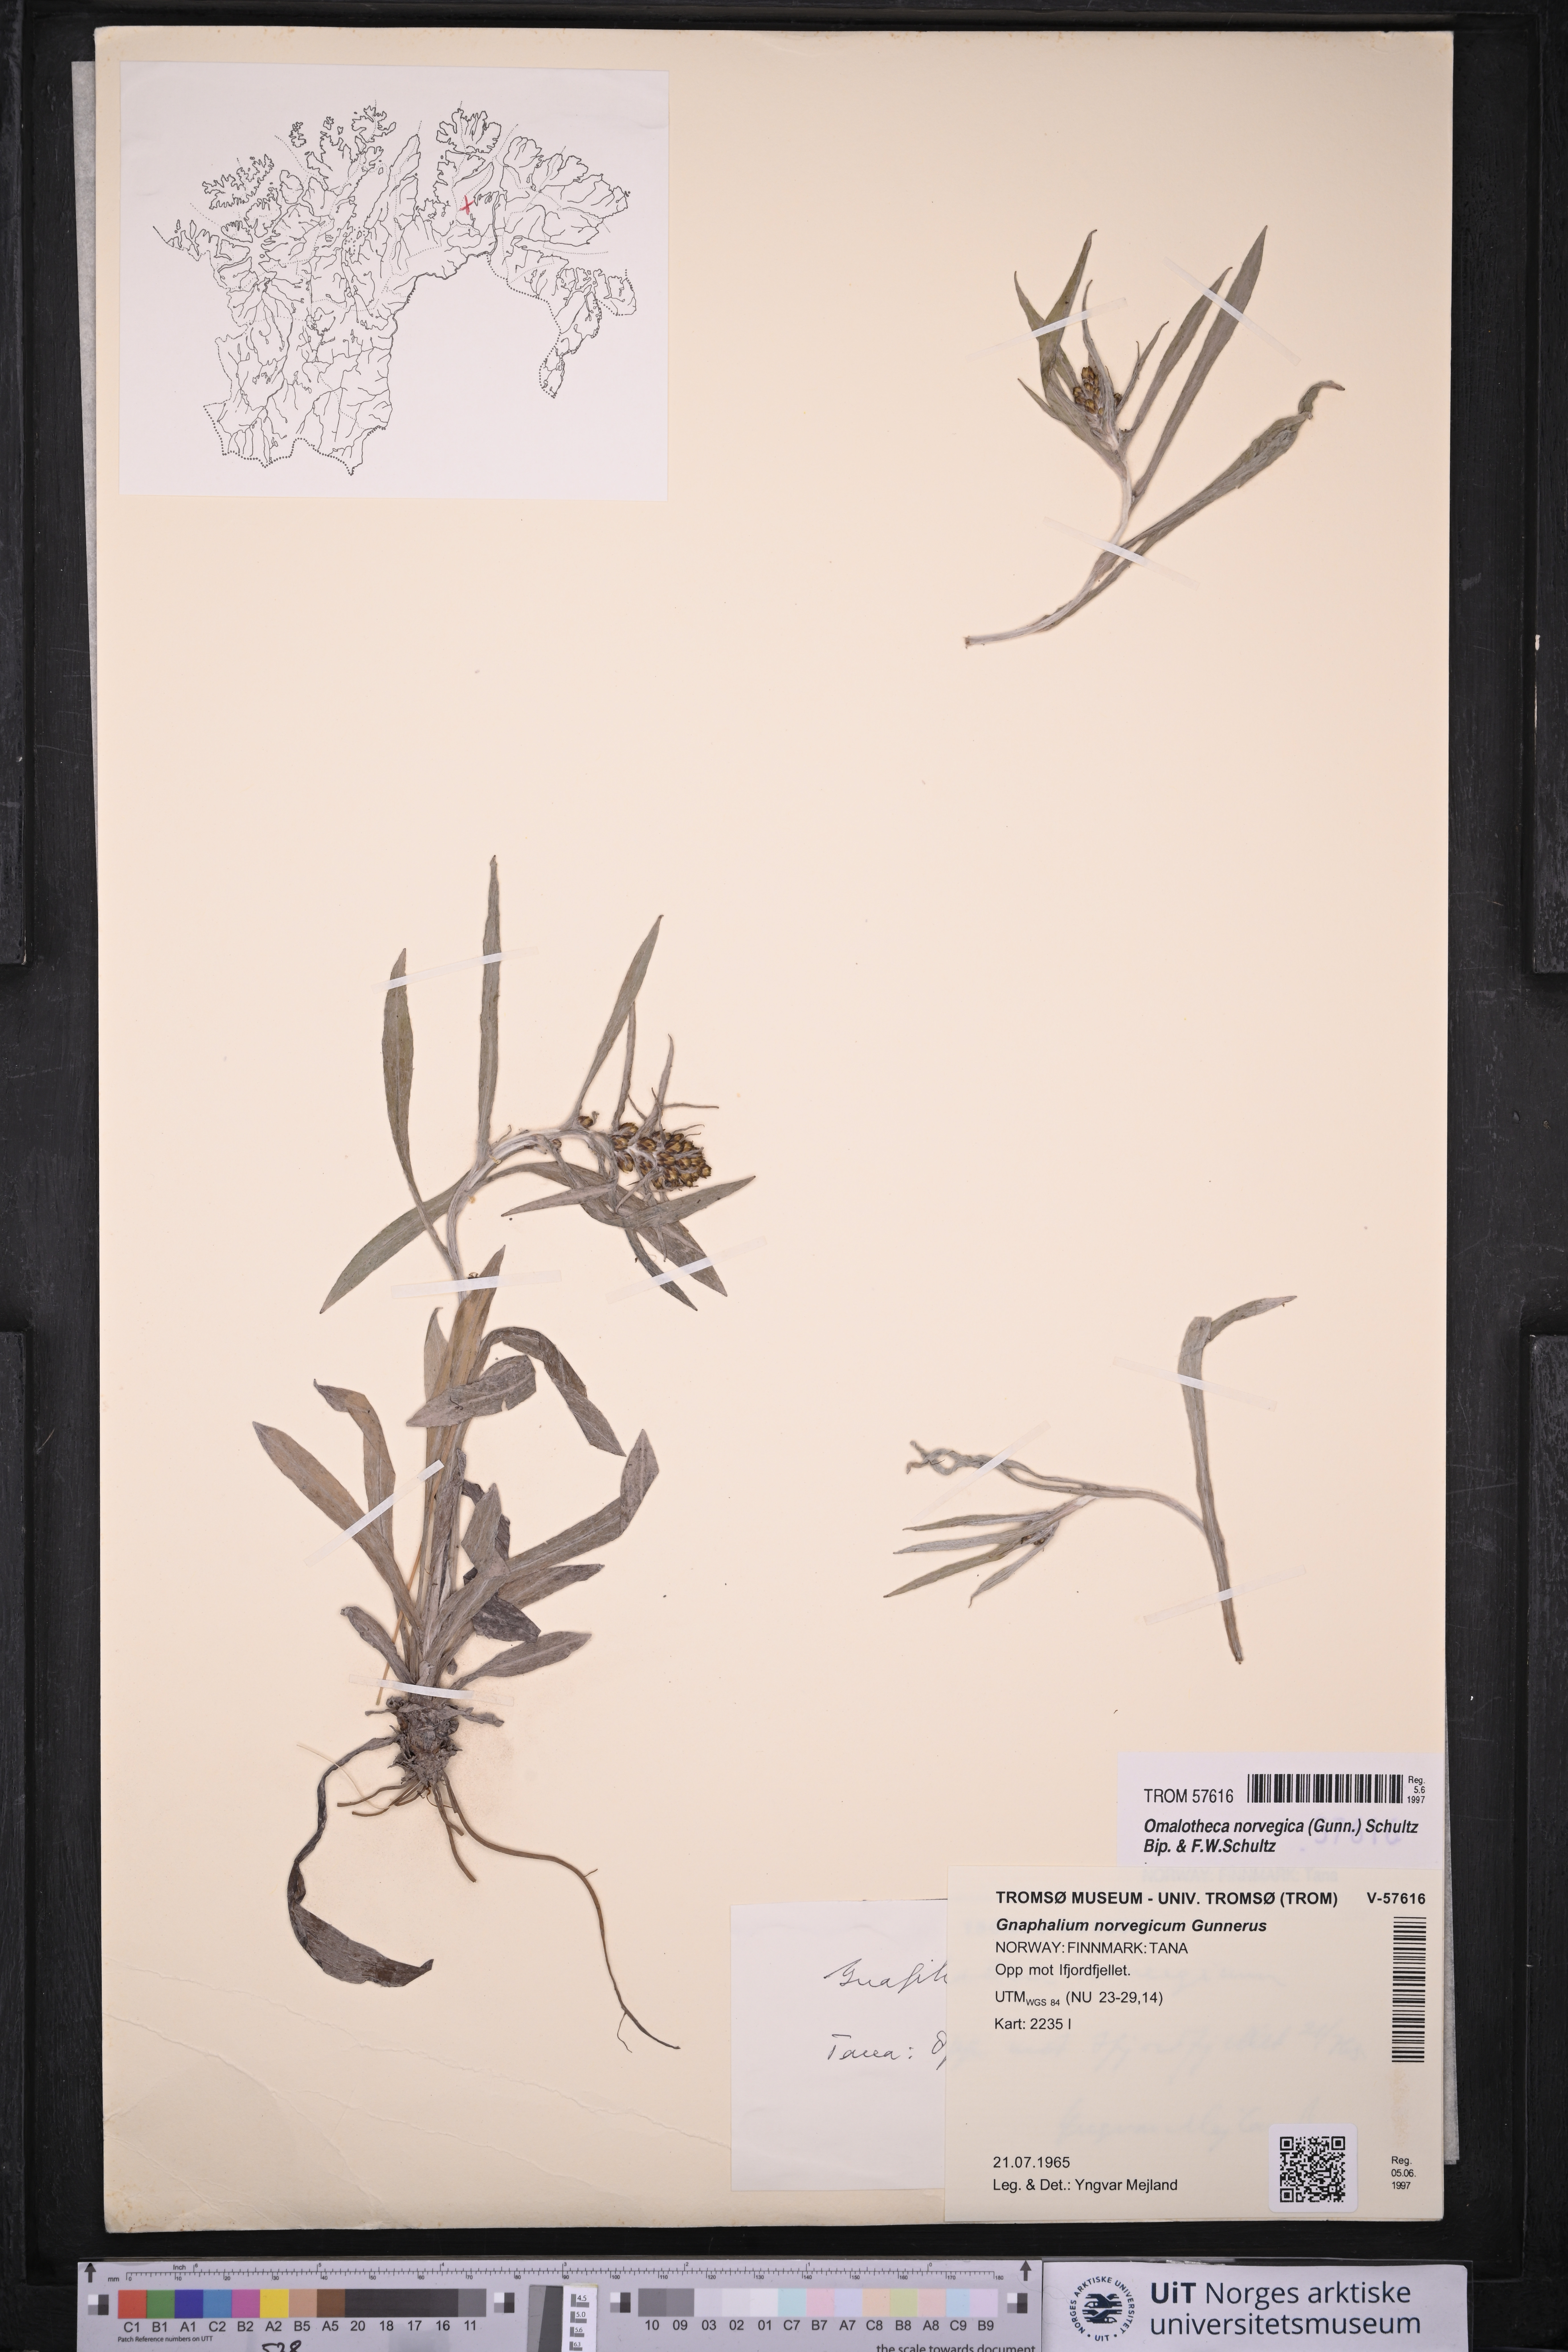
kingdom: Plantae
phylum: Tracheophyta
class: Magnoliopsida
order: Asterales
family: Asteraceae
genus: Omalotheca
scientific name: Omalotheca norvegica
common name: Norwegian arctic-cudweed
